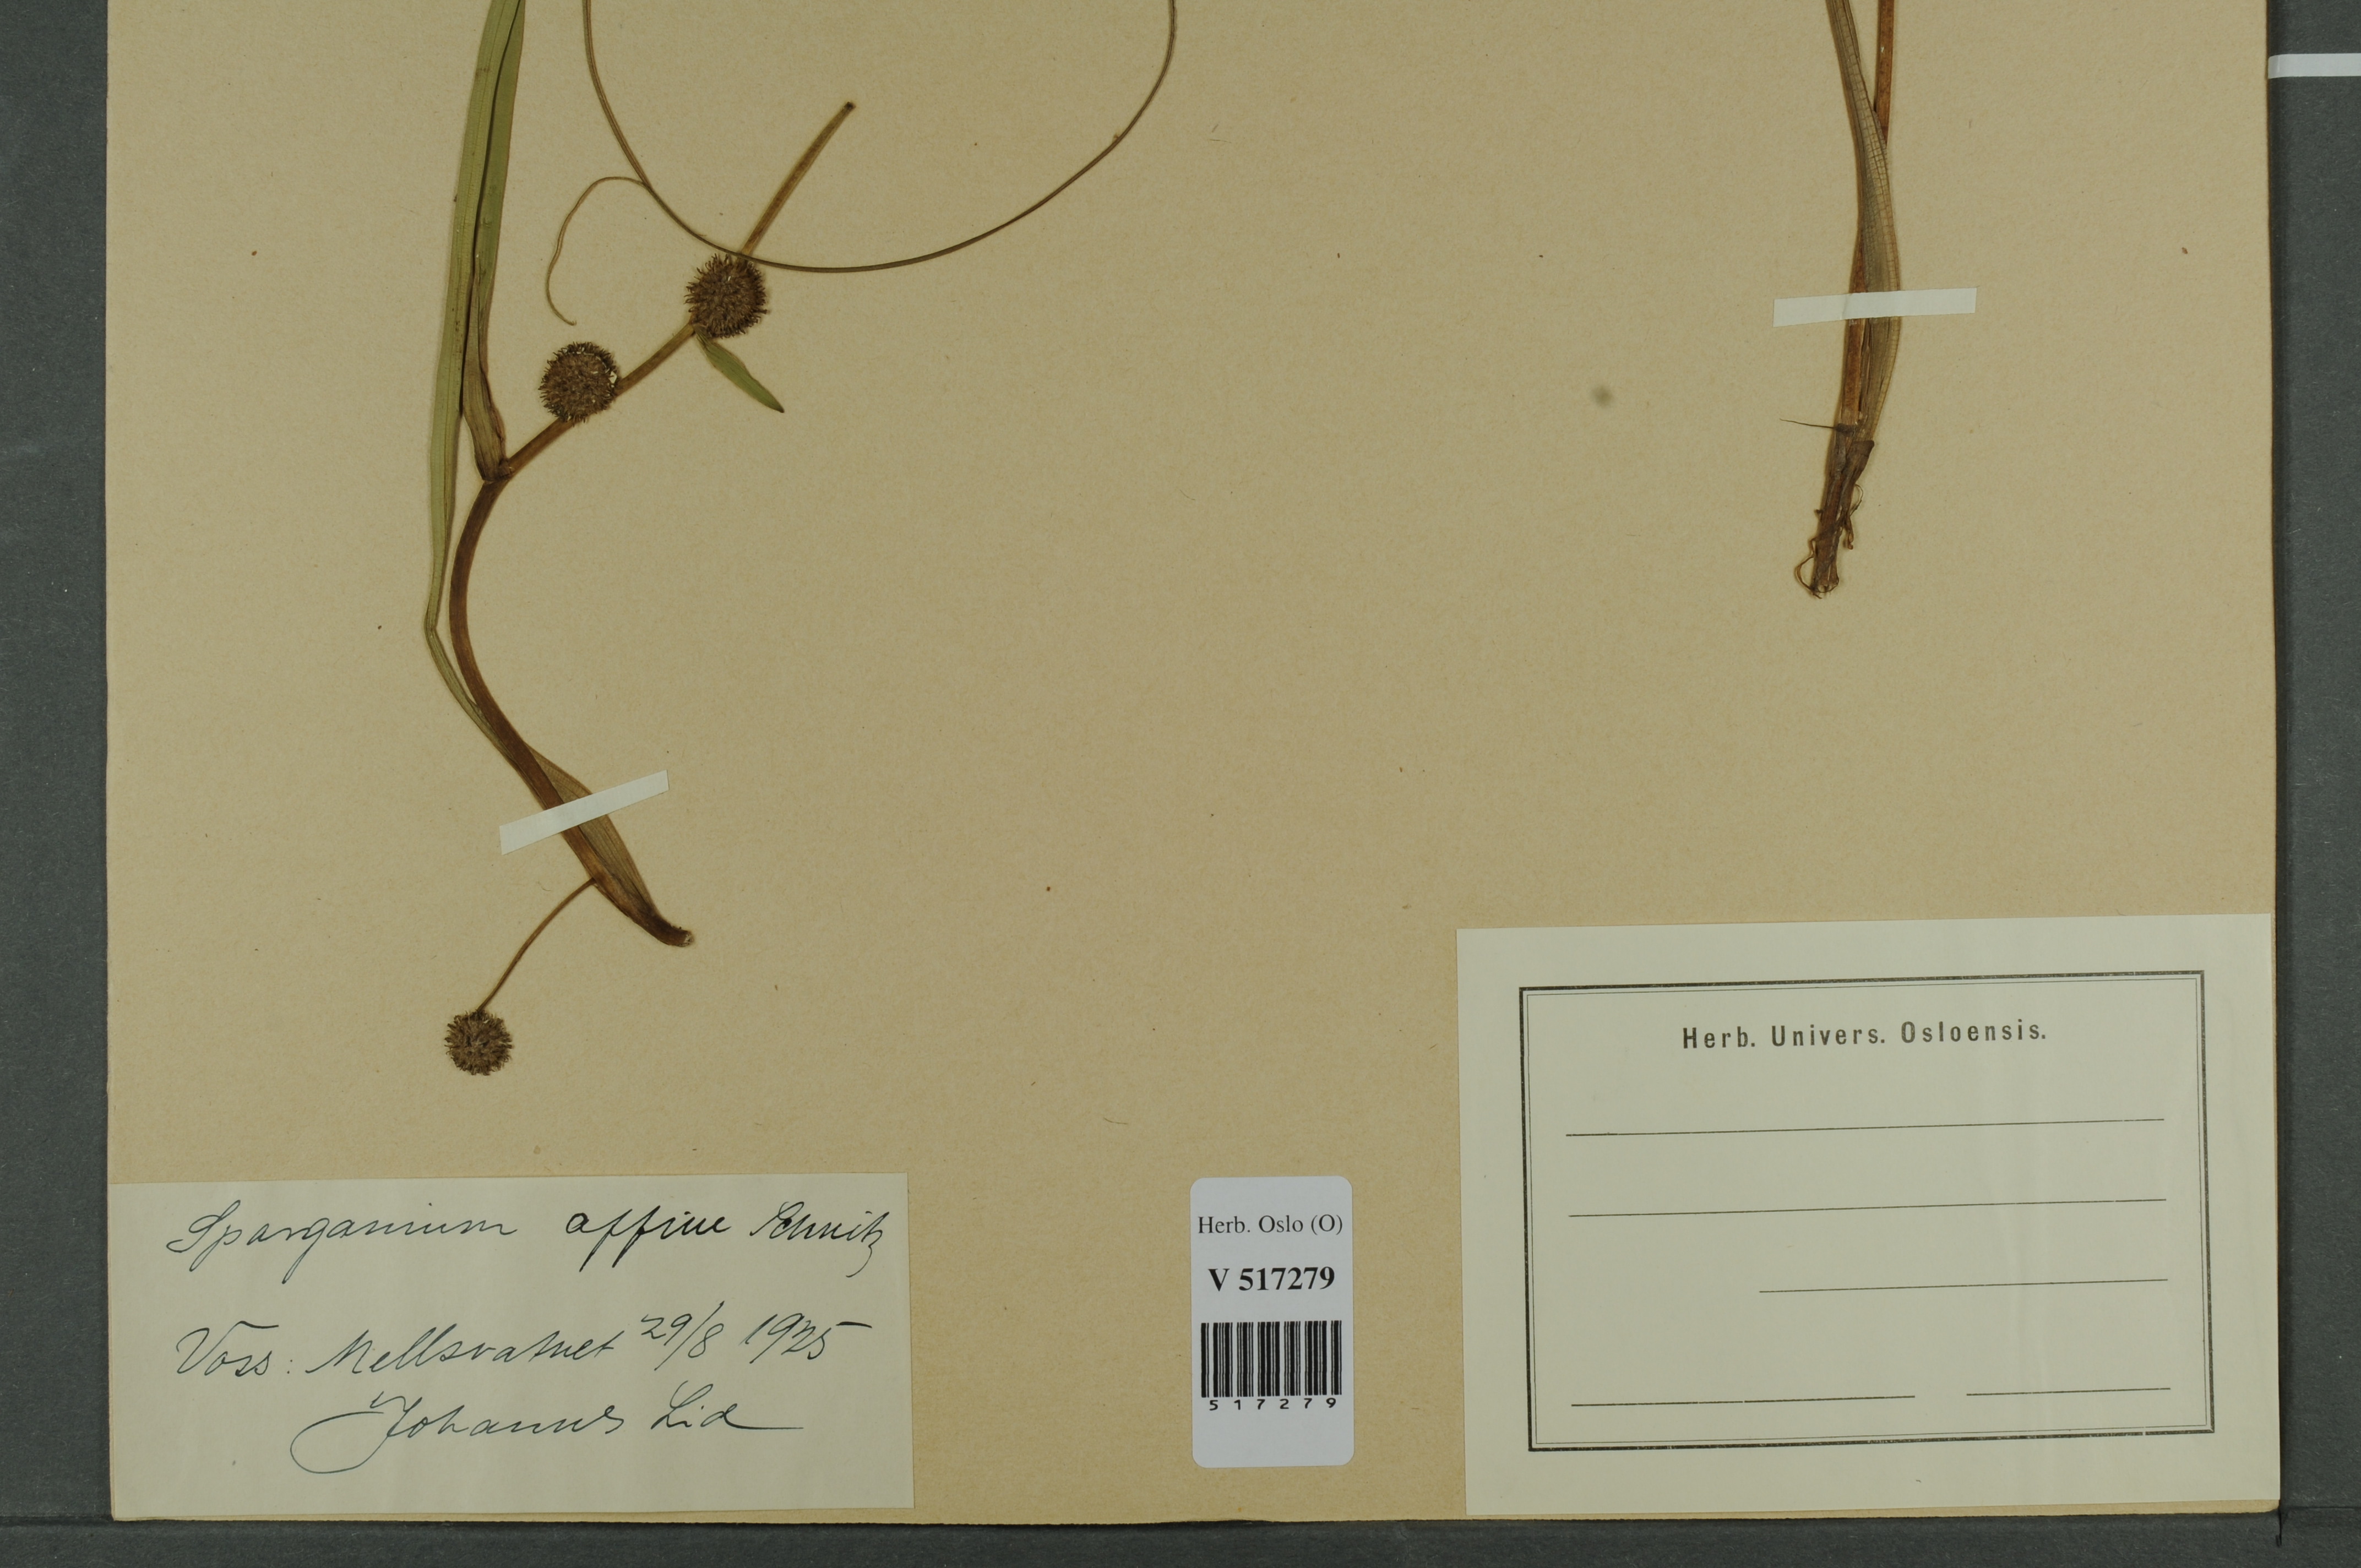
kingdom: Plantae
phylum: Tracheophyta
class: Liliopsida
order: Poales
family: Typhaceae
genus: Sparganium
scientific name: Sparganium angustifolium
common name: Floating bur-reed
